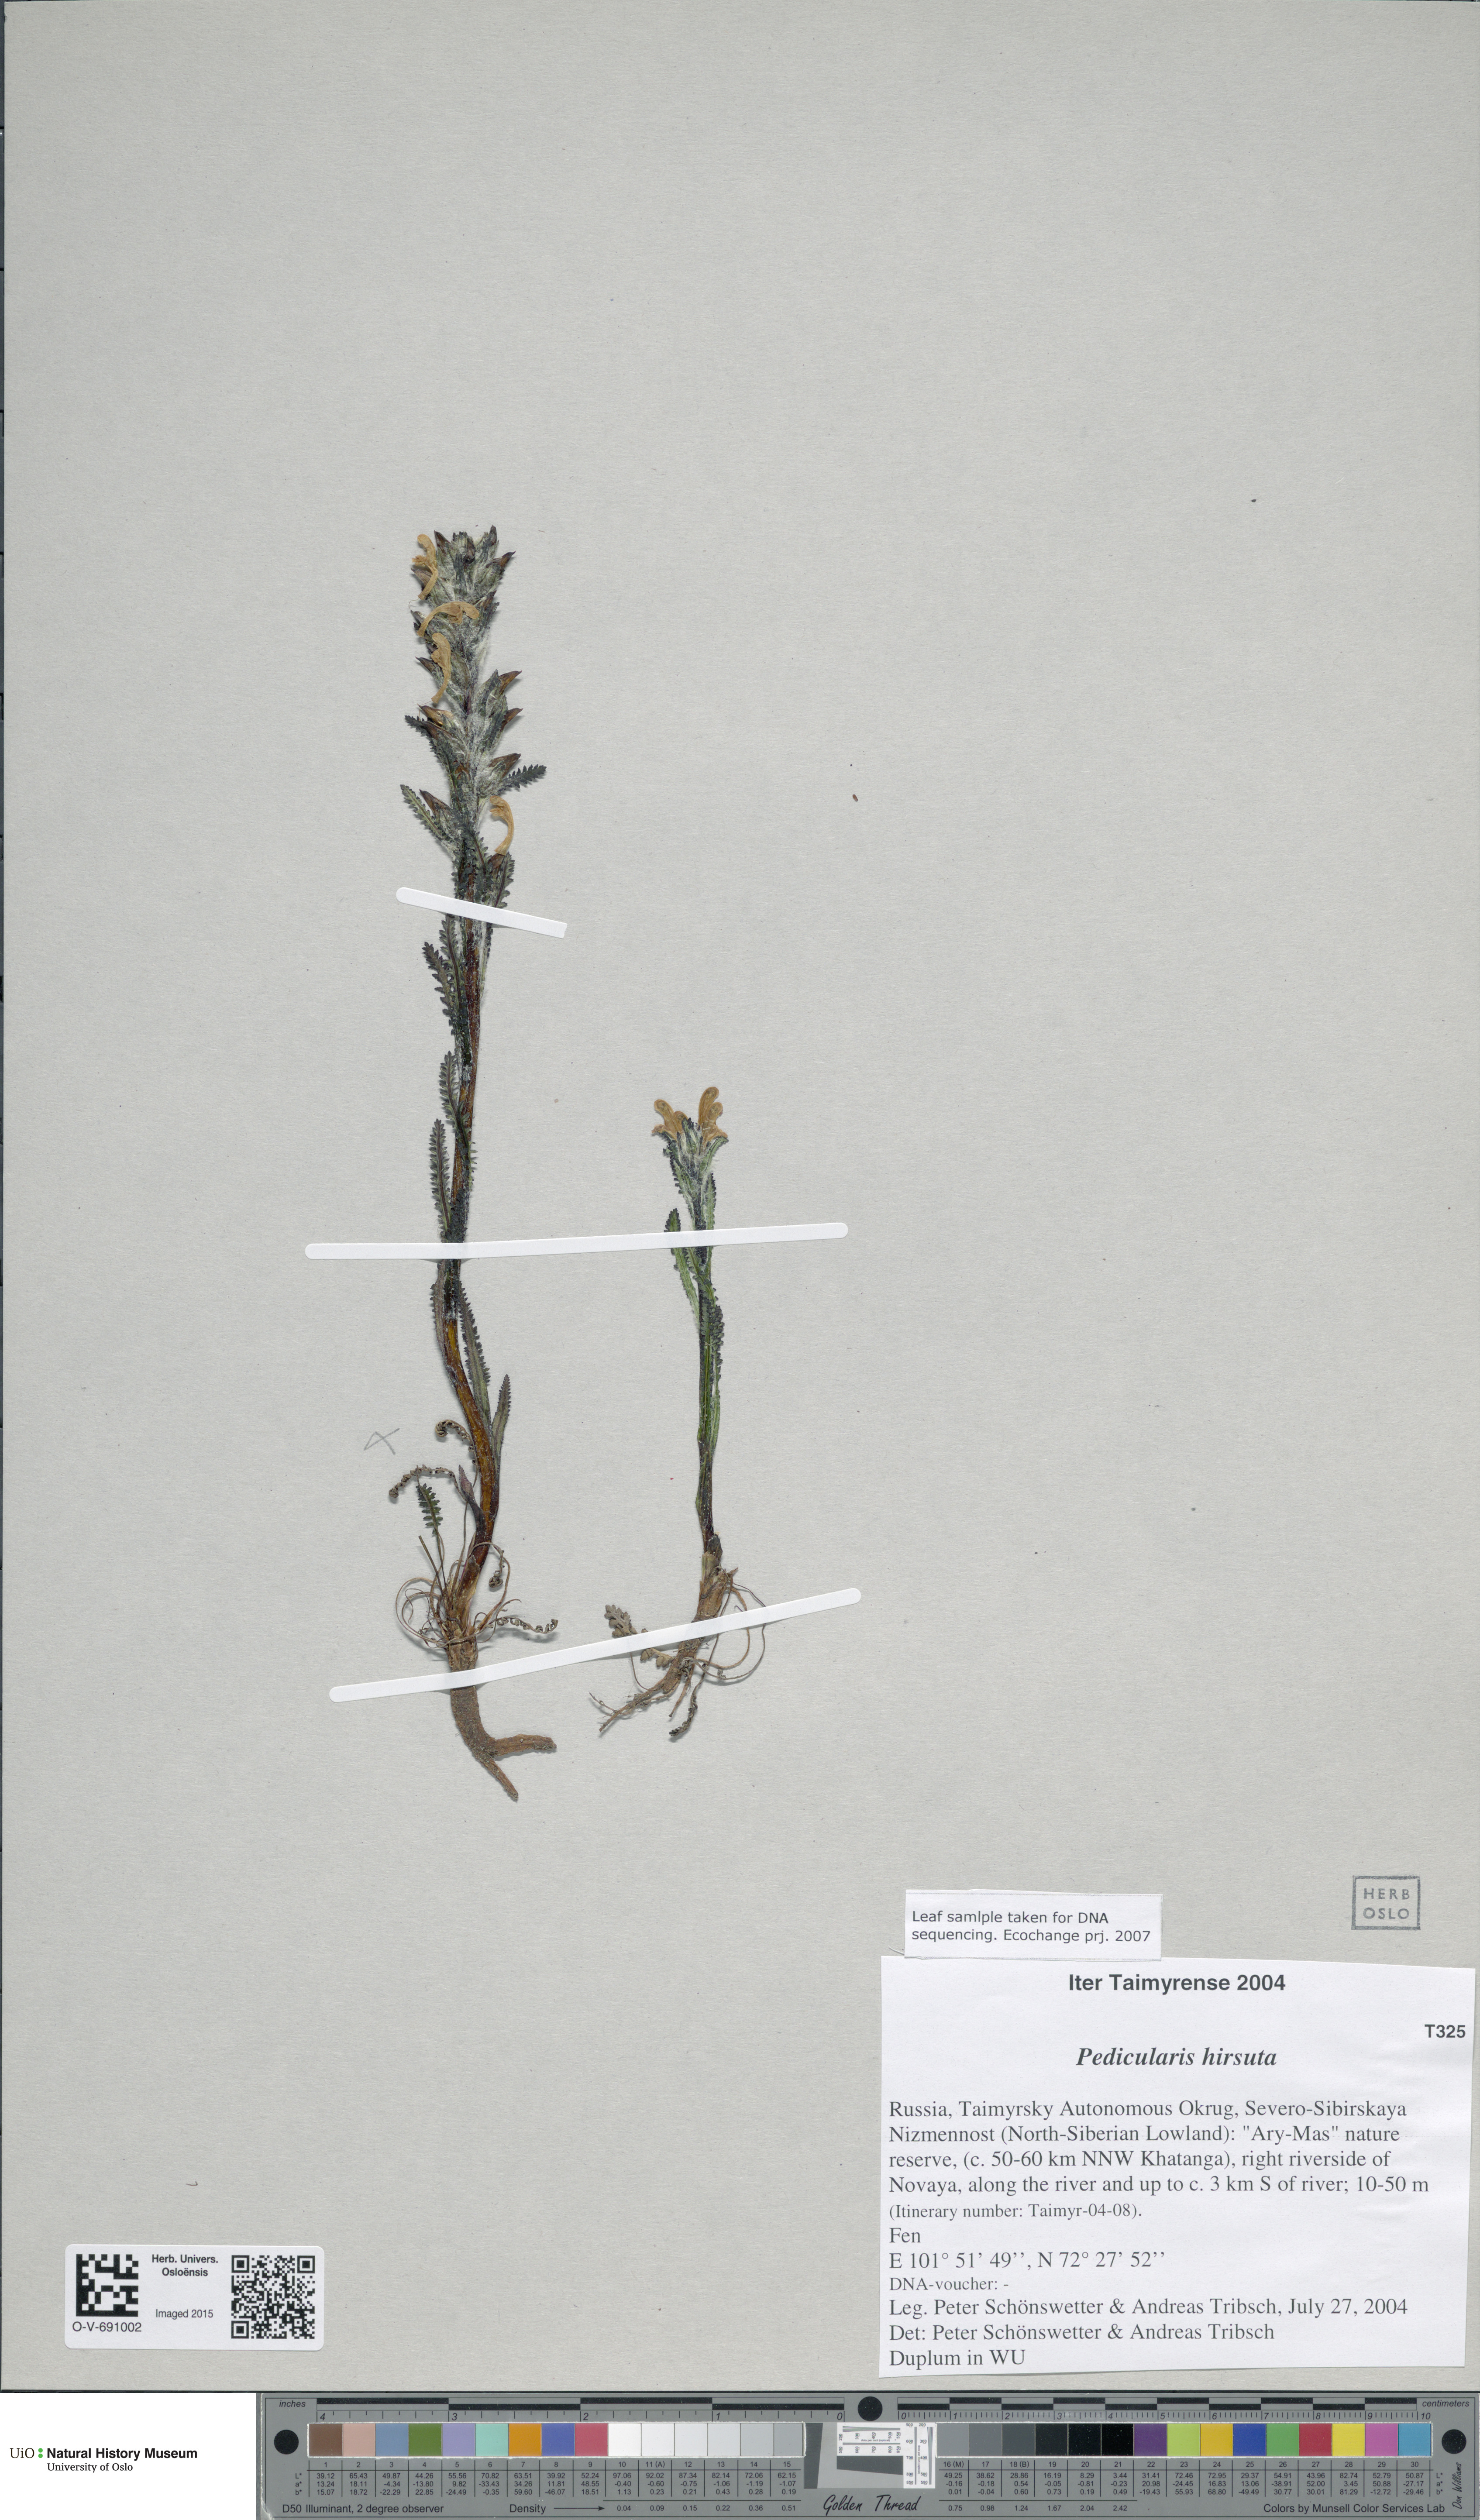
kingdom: Plantae
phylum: Tracheophyta
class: Magnoliopsida
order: Lamiales
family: Orobanchaceae
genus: Pedicularis
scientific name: Pedicularis hirsuta
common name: Hairy lousewort
